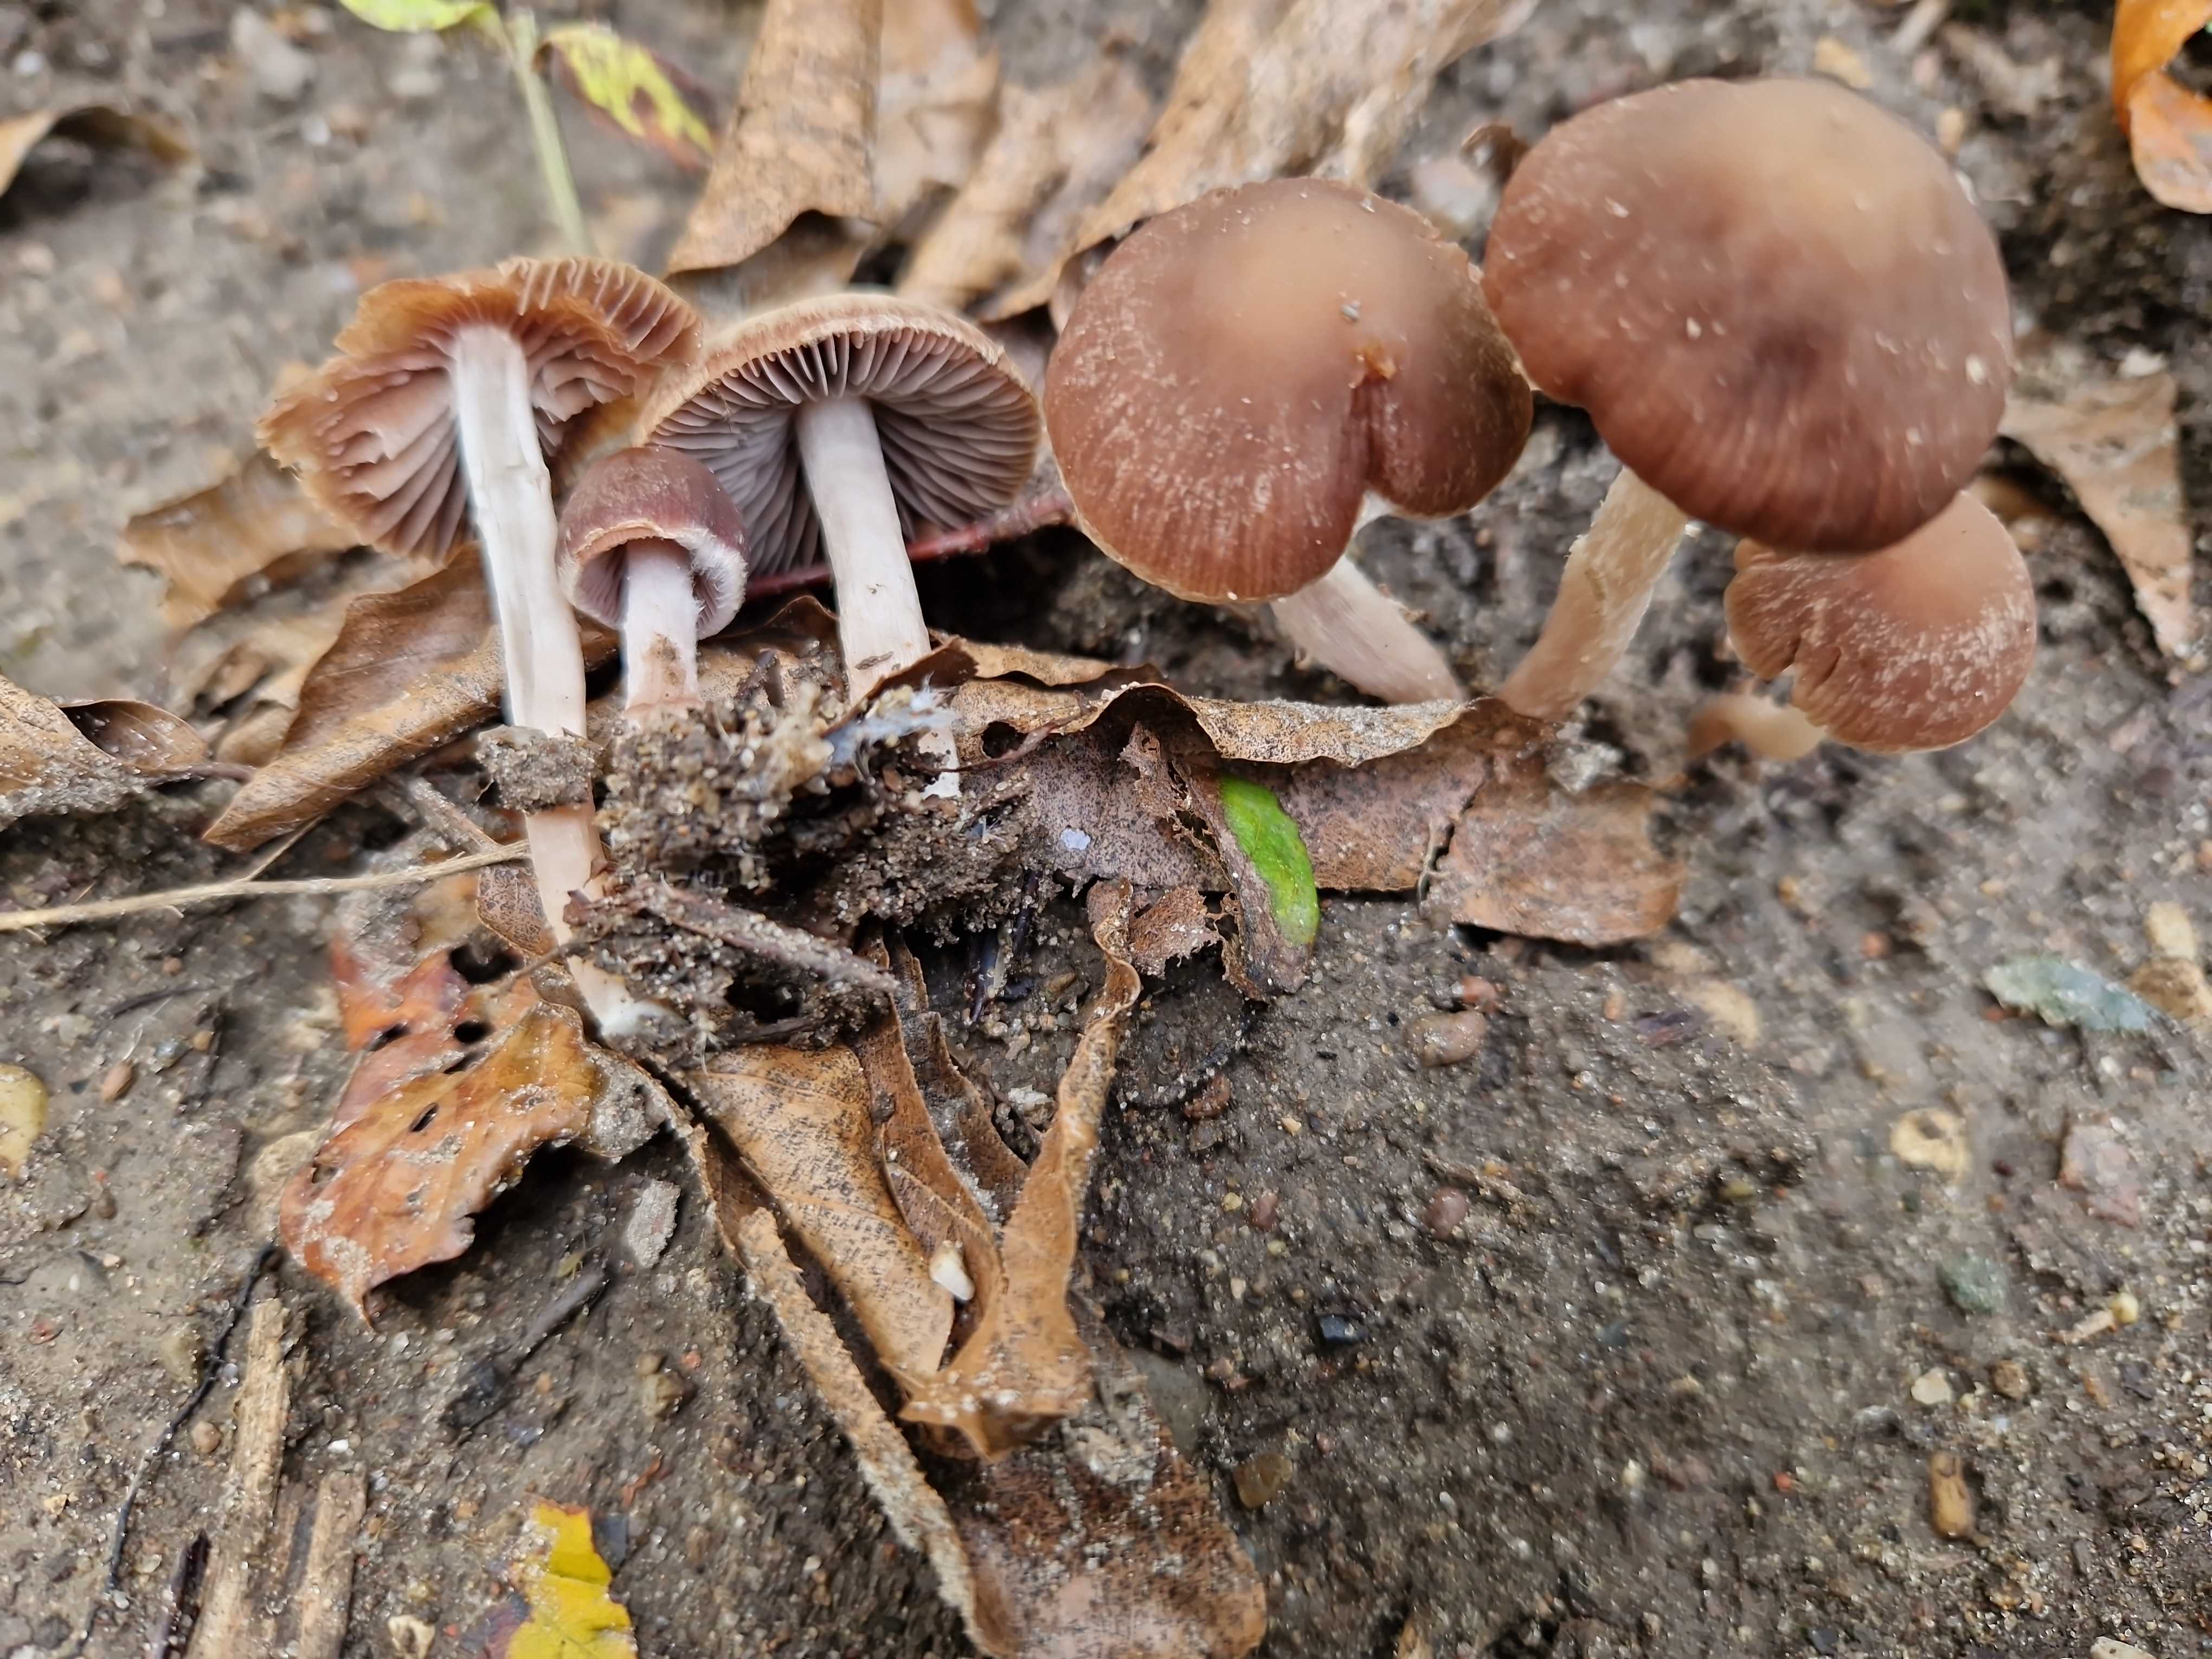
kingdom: Fungi
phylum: Basidiomycota
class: Agaricomycetes
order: Agaricales
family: Psathyrellaceae
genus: Psathyrella
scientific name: Psathyrella bipellis
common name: vinrød mørkhat
